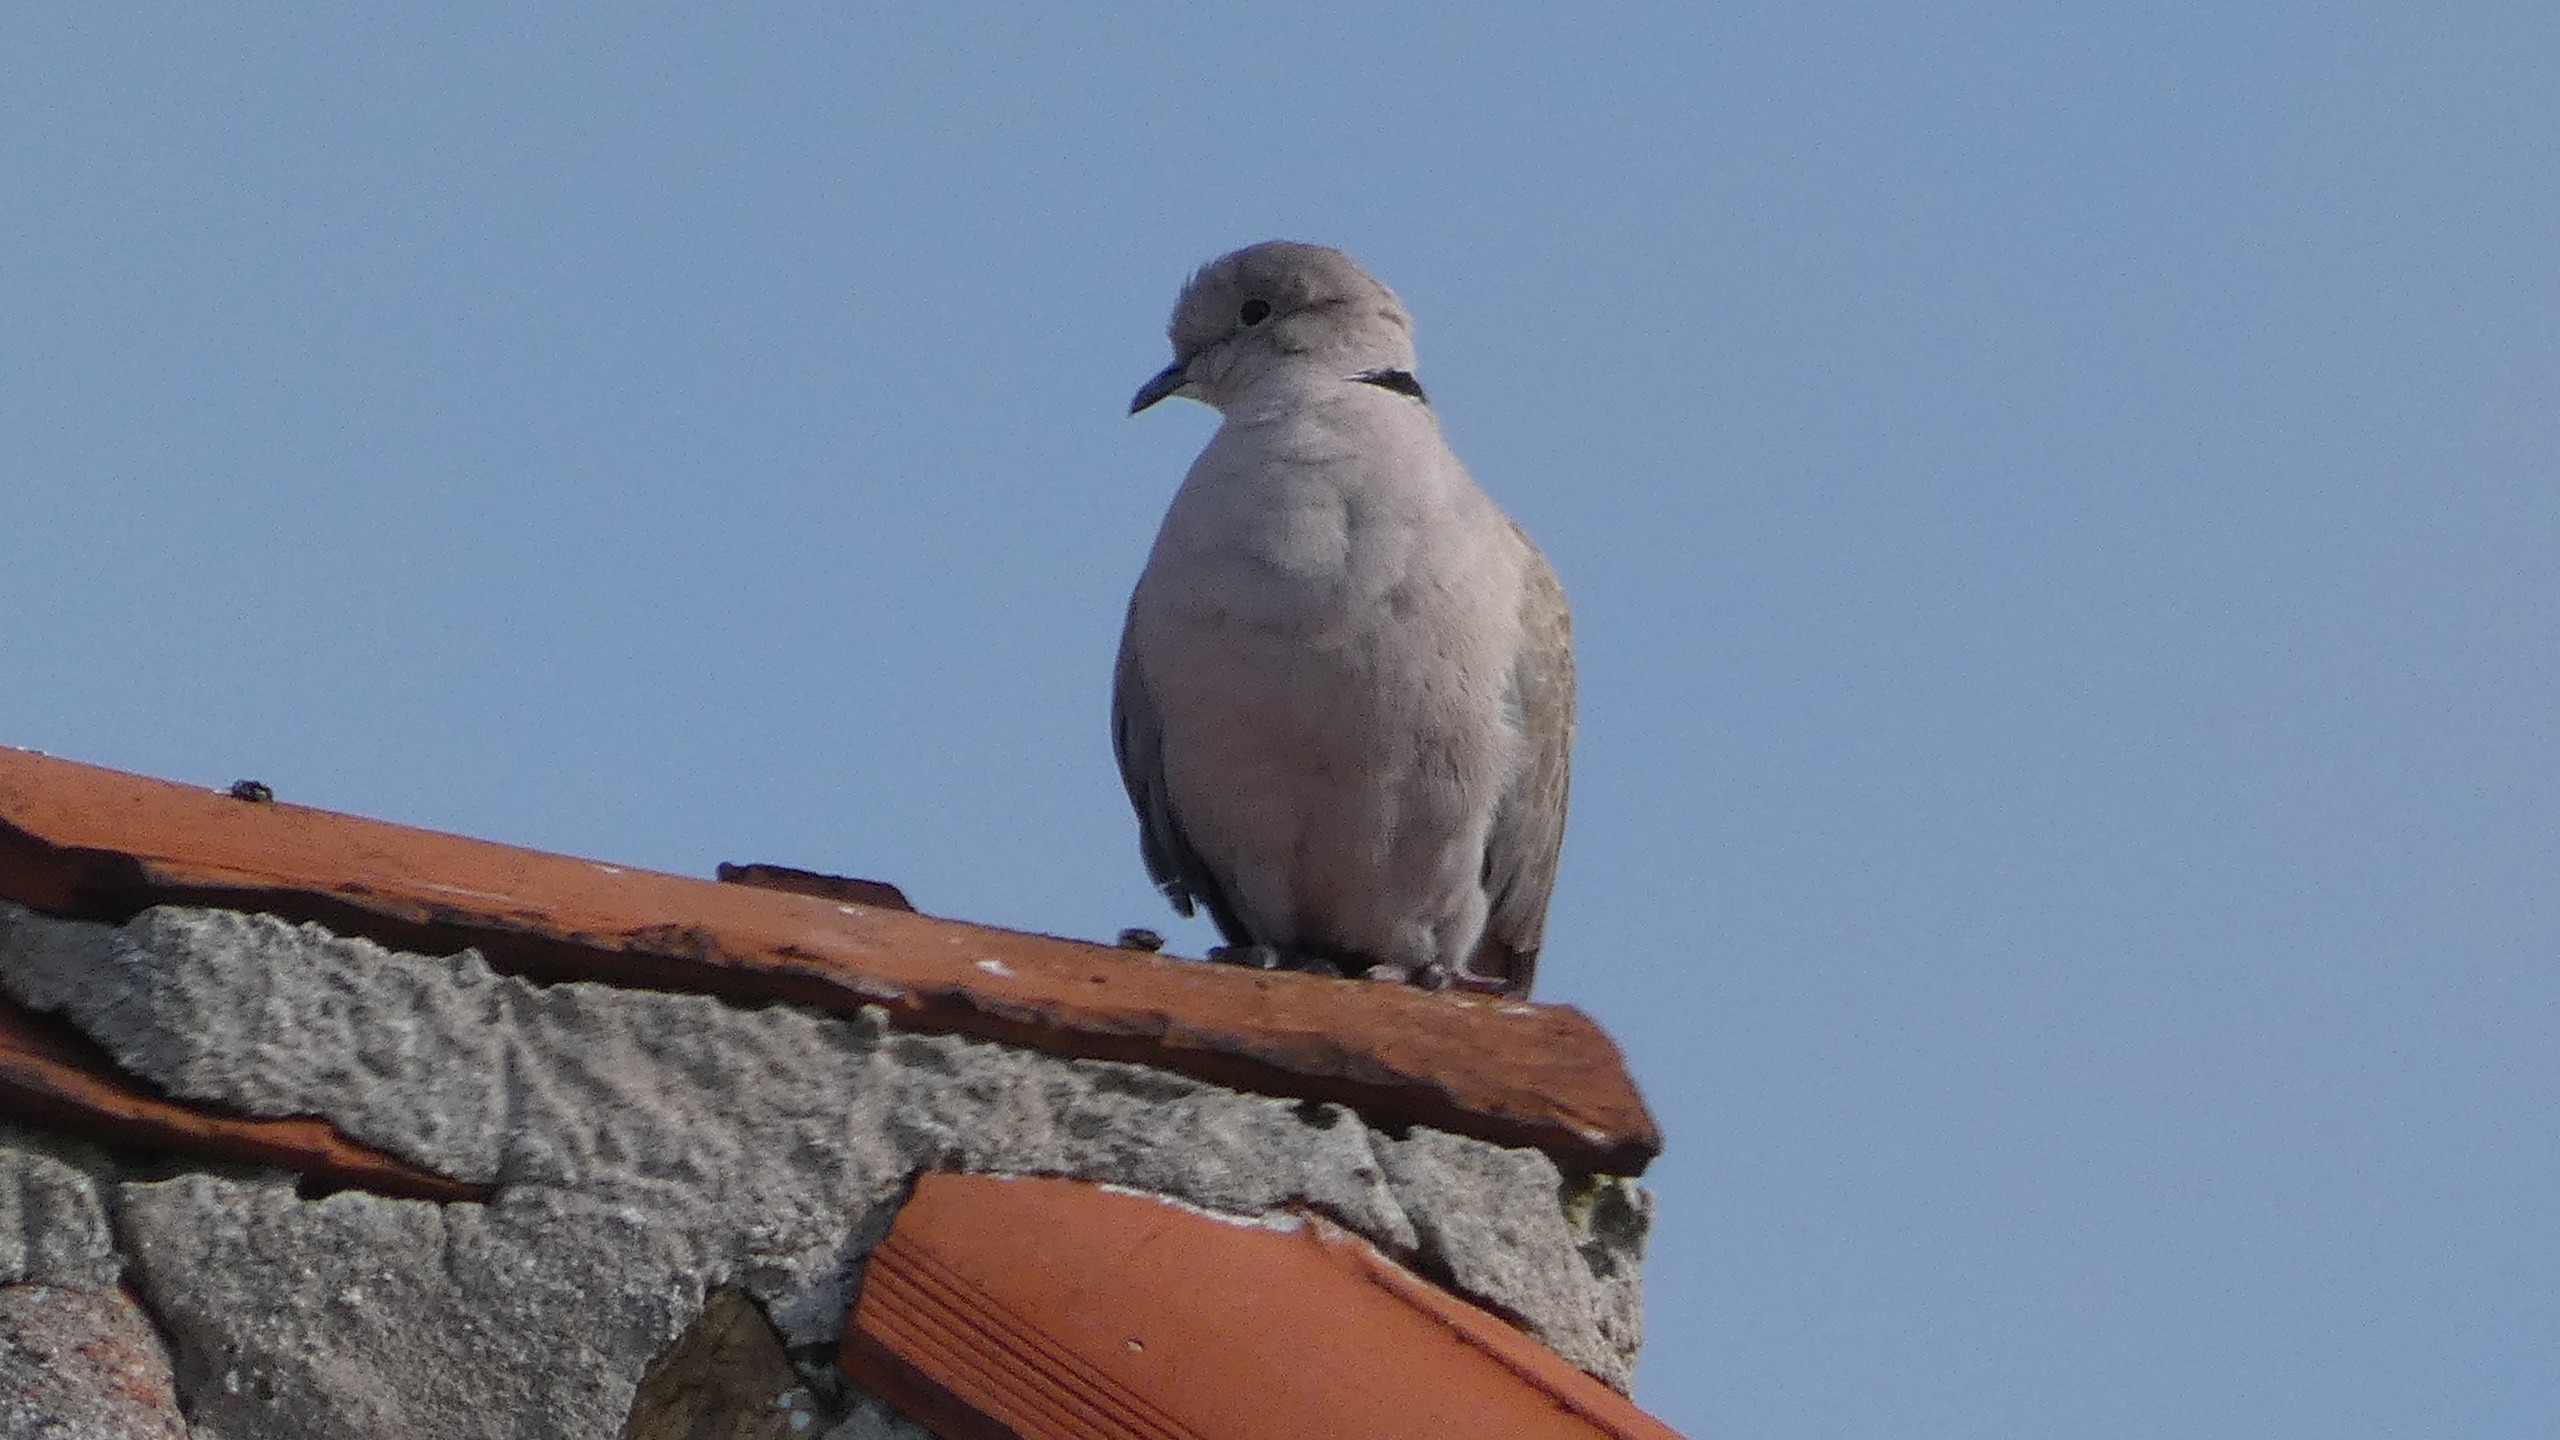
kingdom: Animalia
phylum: Chordata
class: Aves
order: Columbiformes
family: Columbidae
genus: Streptopelia
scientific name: Streptopelia decaocto
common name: Tyrkerdue
